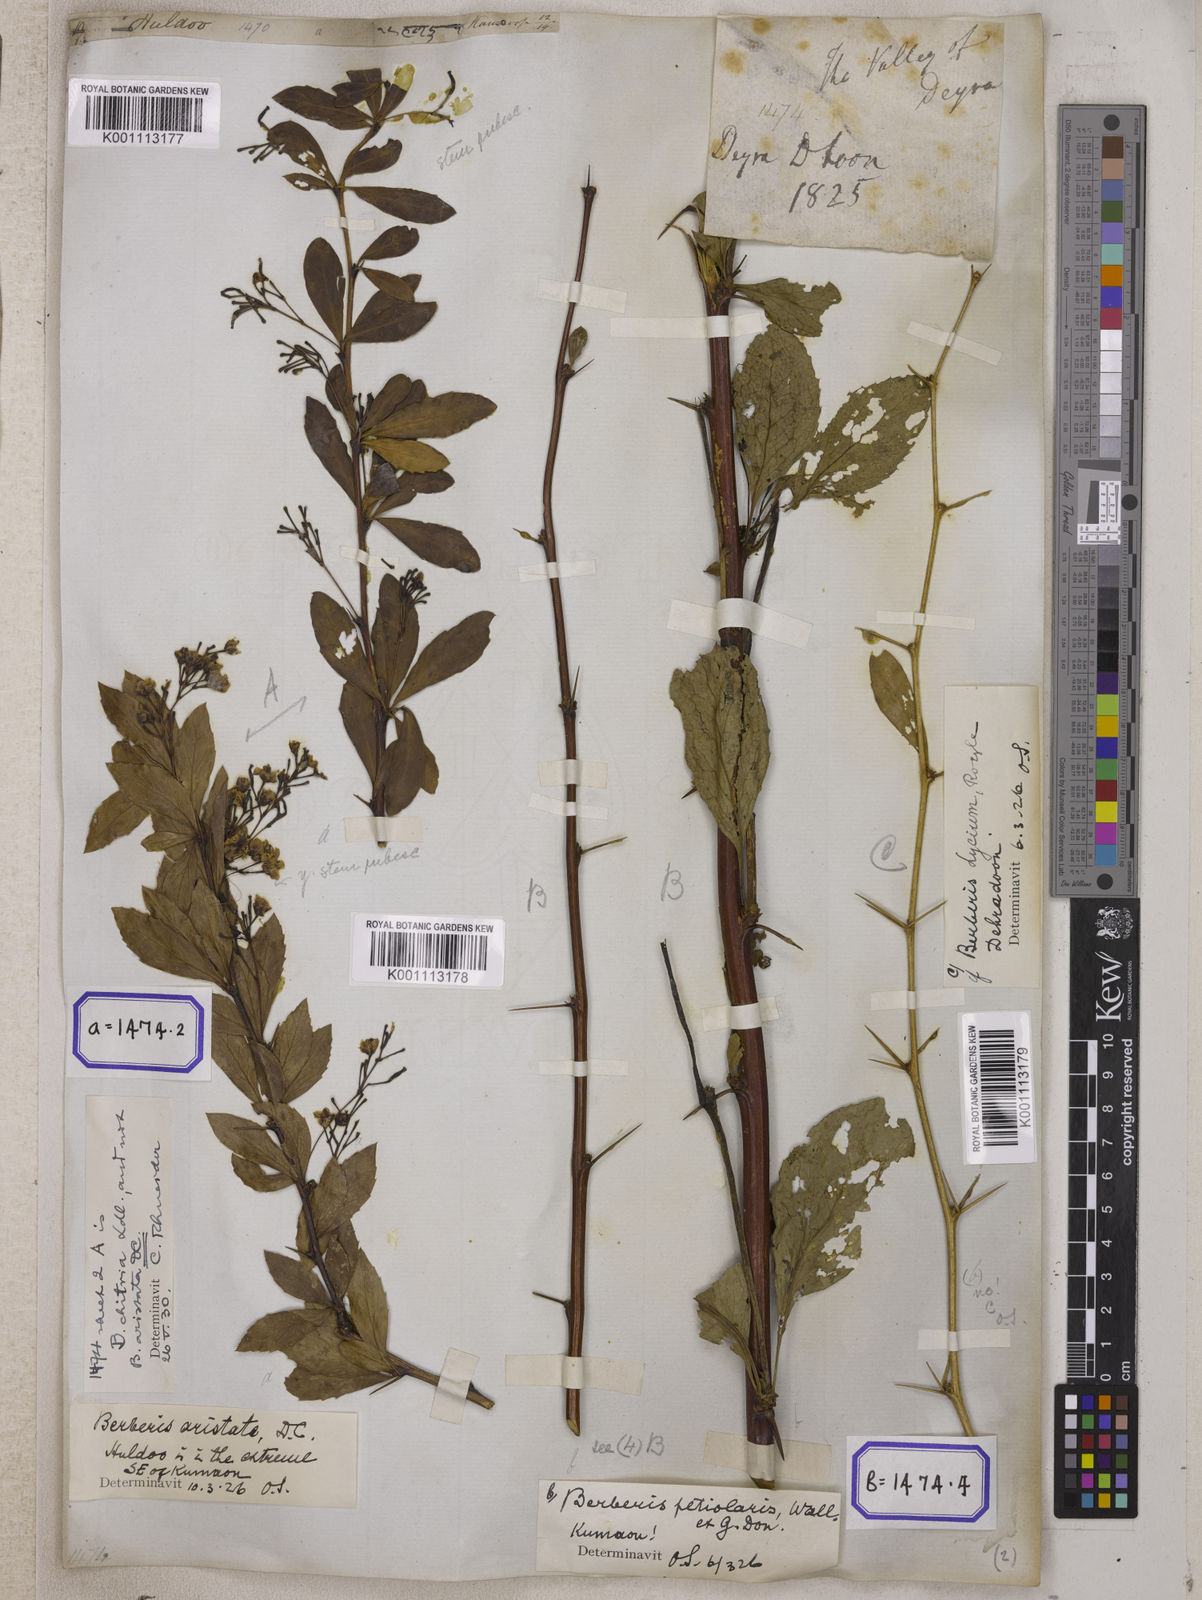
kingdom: Plantae
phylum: Tracheophyta
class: Magnoliopsida
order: Ranunculales
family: Berberidaceae
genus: Berberis
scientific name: Berberis aristata
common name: Indian barberry
